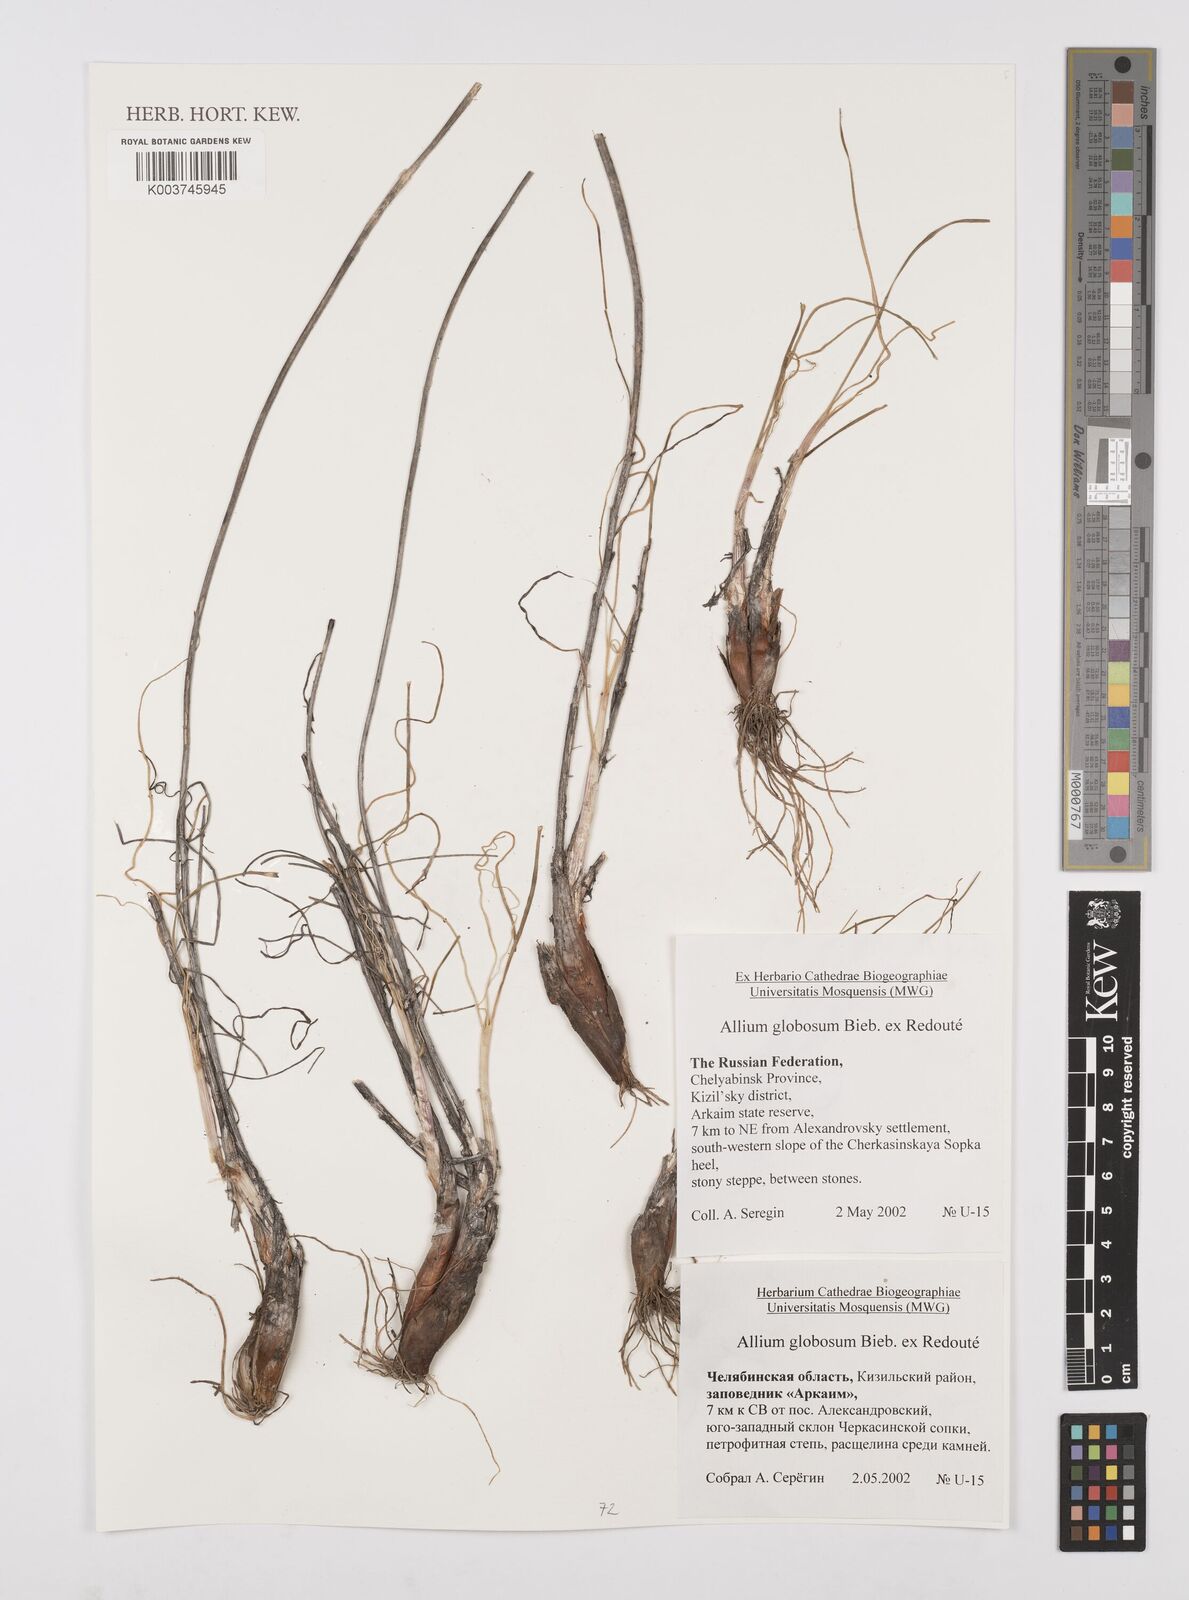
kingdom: Plantae
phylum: Tracheophyta
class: Liliopsida
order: Asparagales
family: Amaryllidaceae
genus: Allium
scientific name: Allium saxatile
